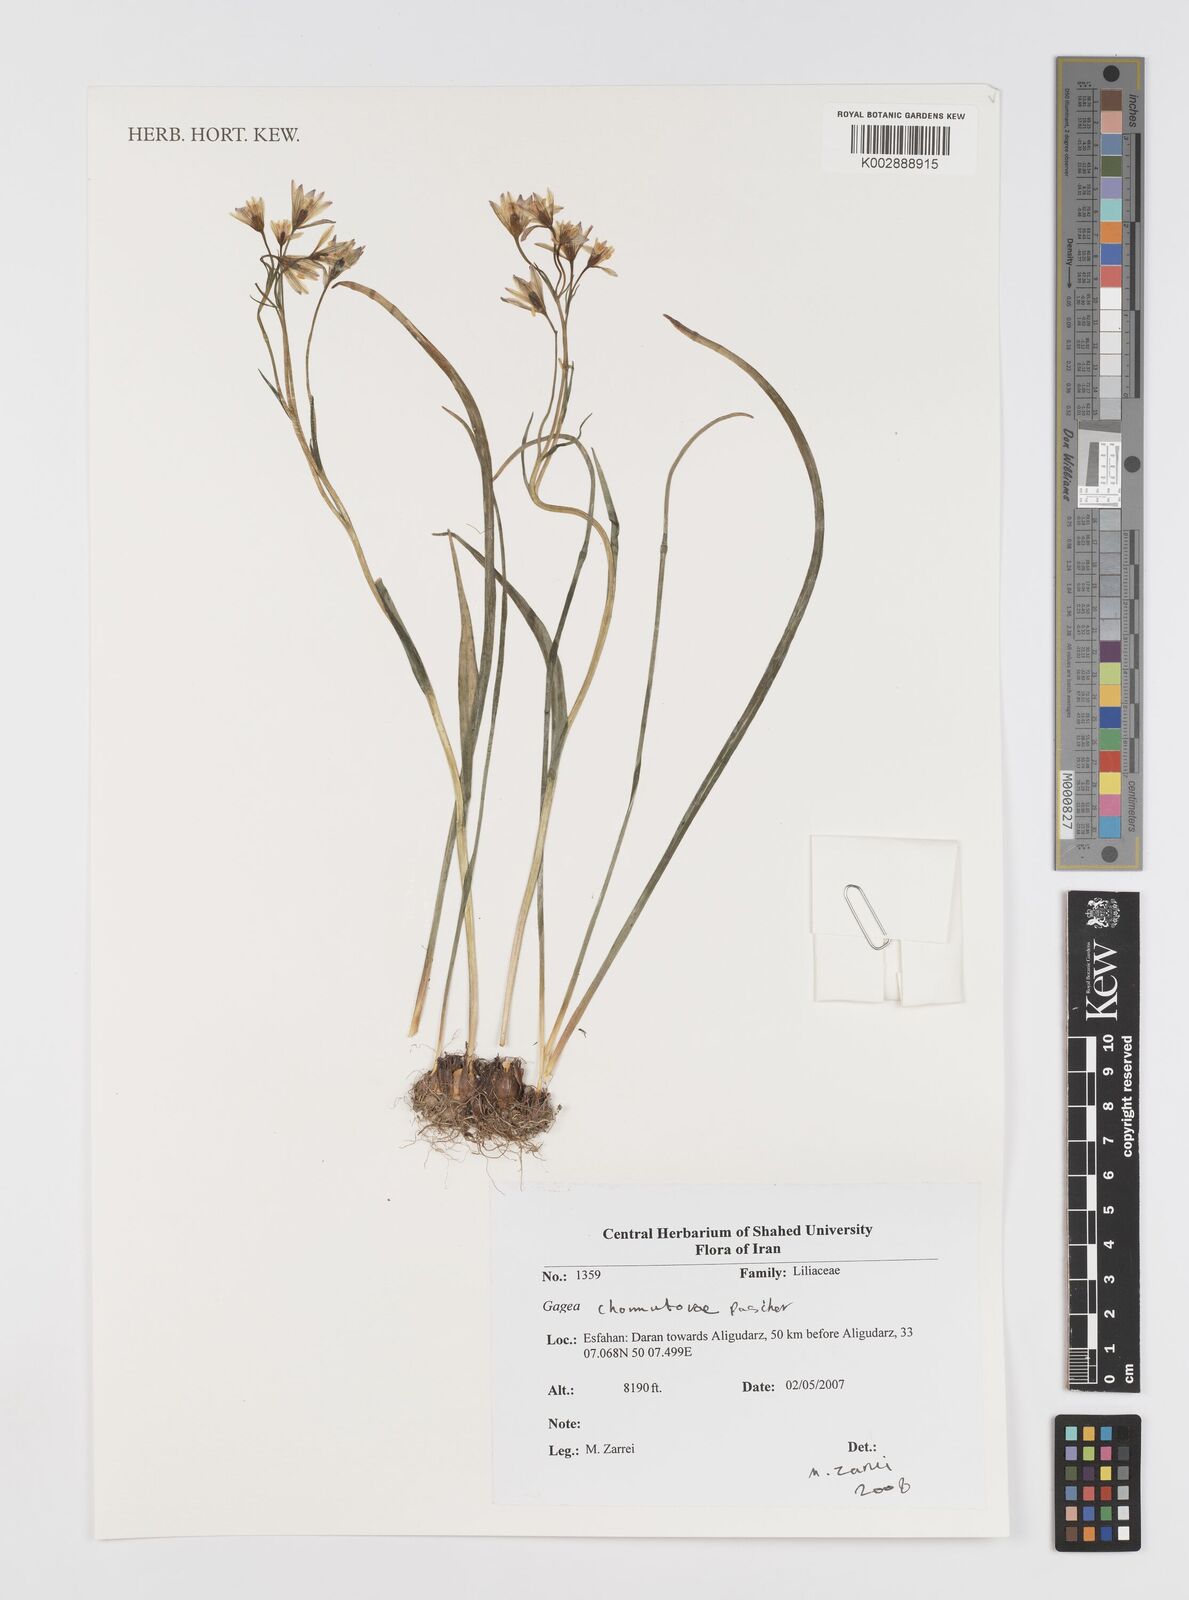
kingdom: Plantae
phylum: Tracheophyta
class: Liliopsida
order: Liliales
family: Liliaceae
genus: Gagea
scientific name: Gagea
